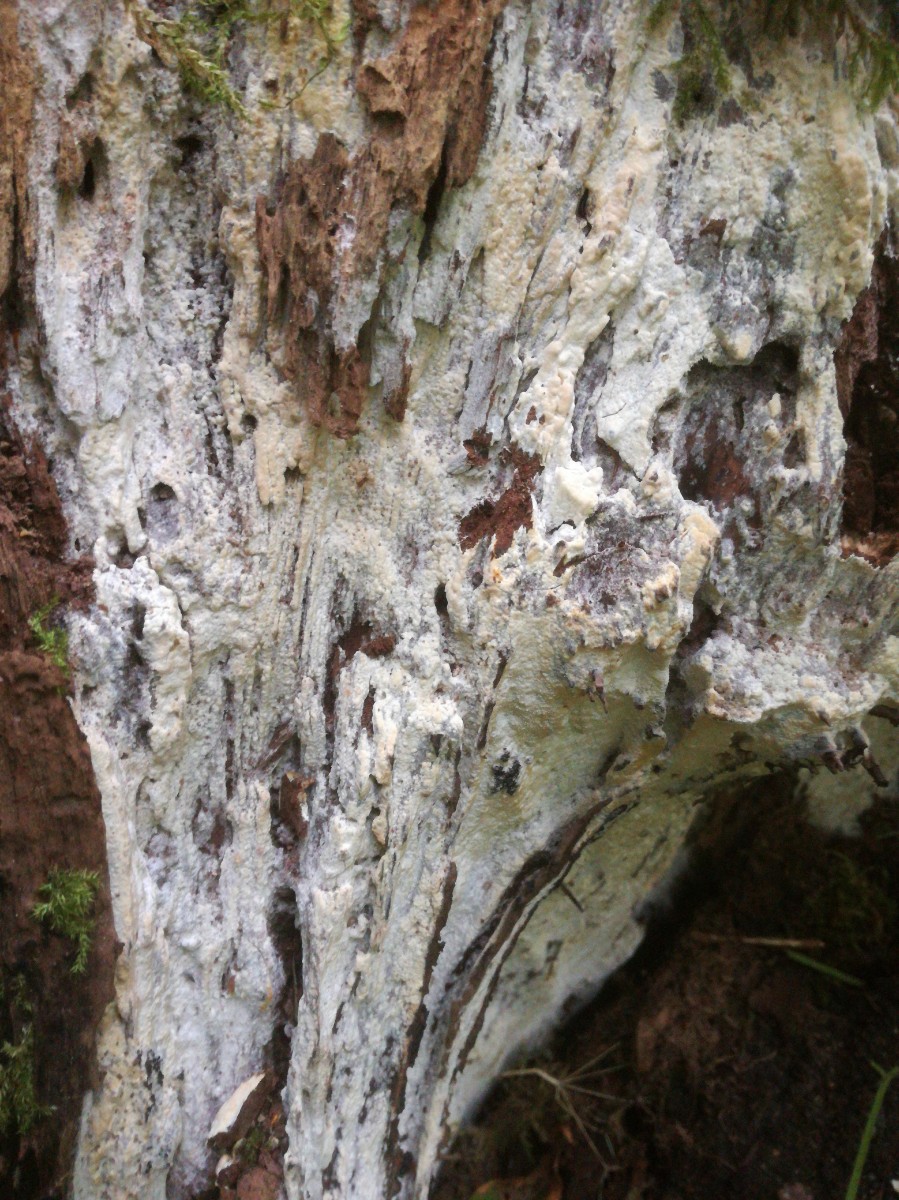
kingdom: Fungi
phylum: Basidiomycota
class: Agaricomycetes
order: Russulales
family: Peniophoraceae
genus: Gloiothele
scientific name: Gloiothele lactescens
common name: bitter olieskind
